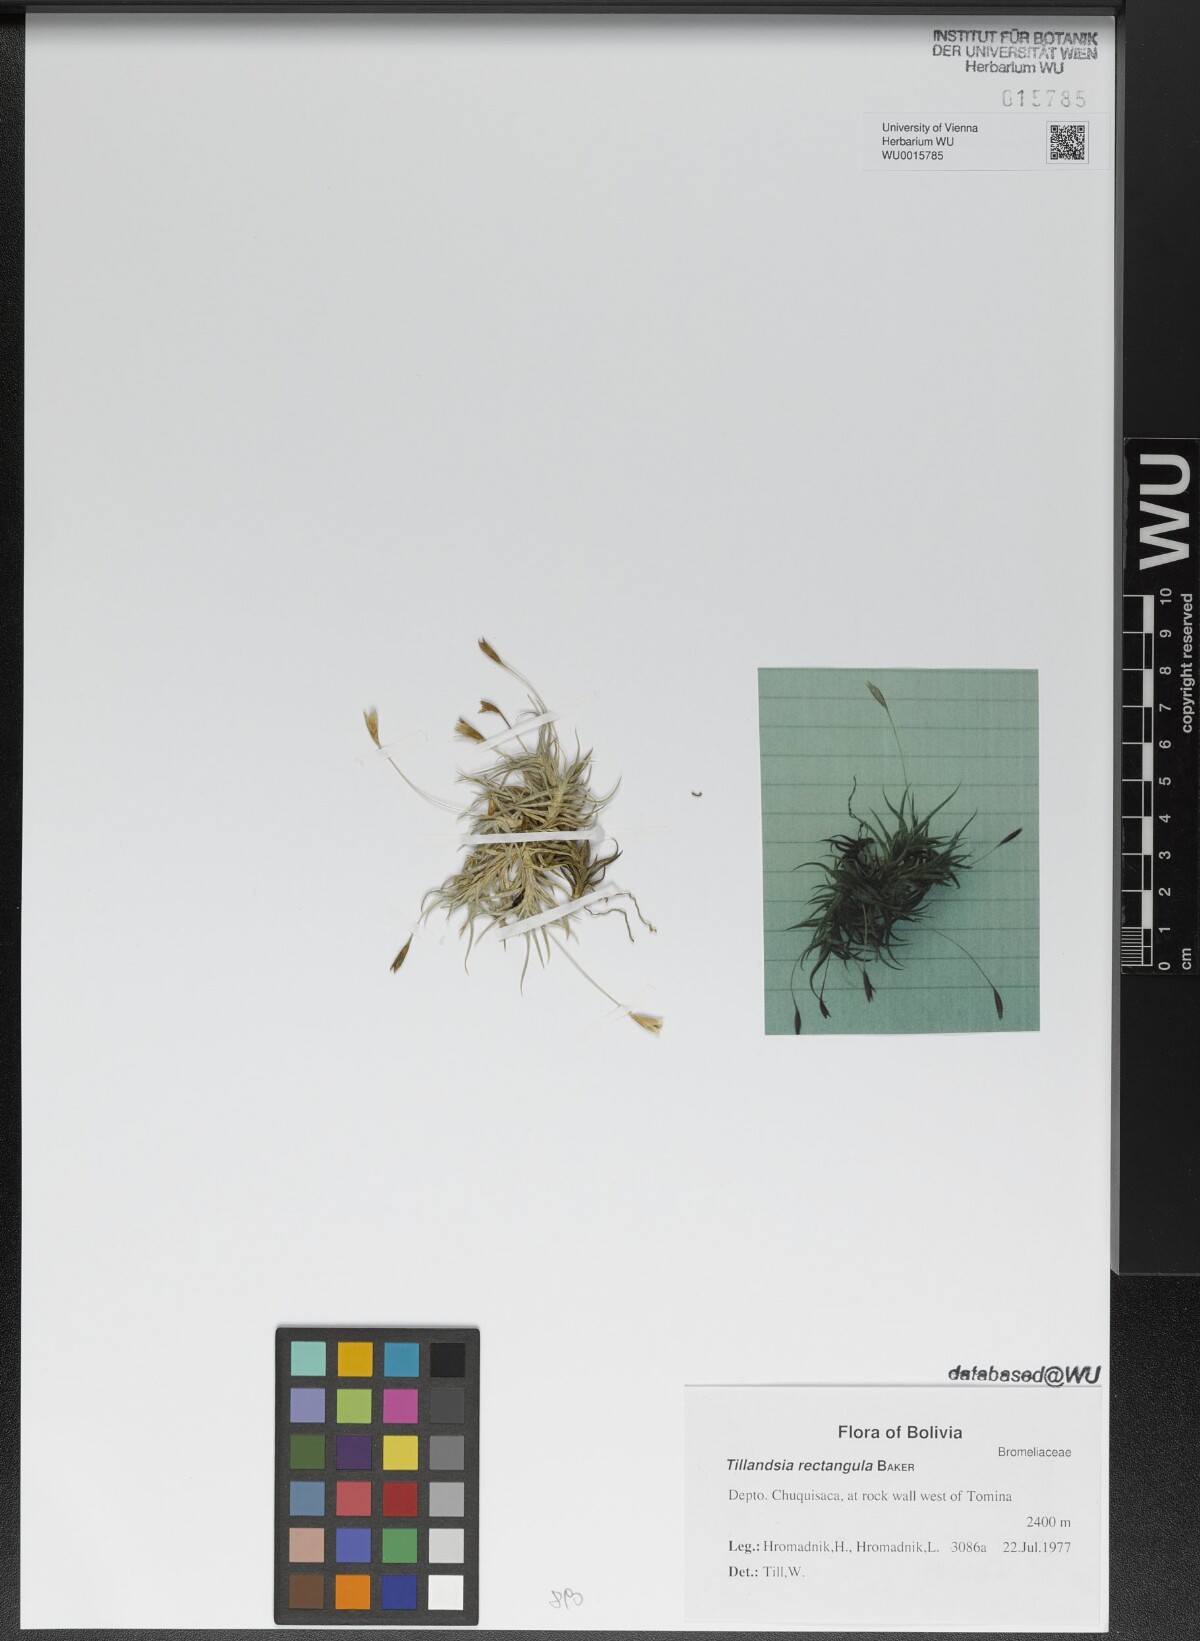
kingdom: Plantae
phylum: Tracheophyta
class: Liliopsida
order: Poales
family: Bromeliaceae
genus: Tillandsia
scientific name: Tillandsia rectangula
